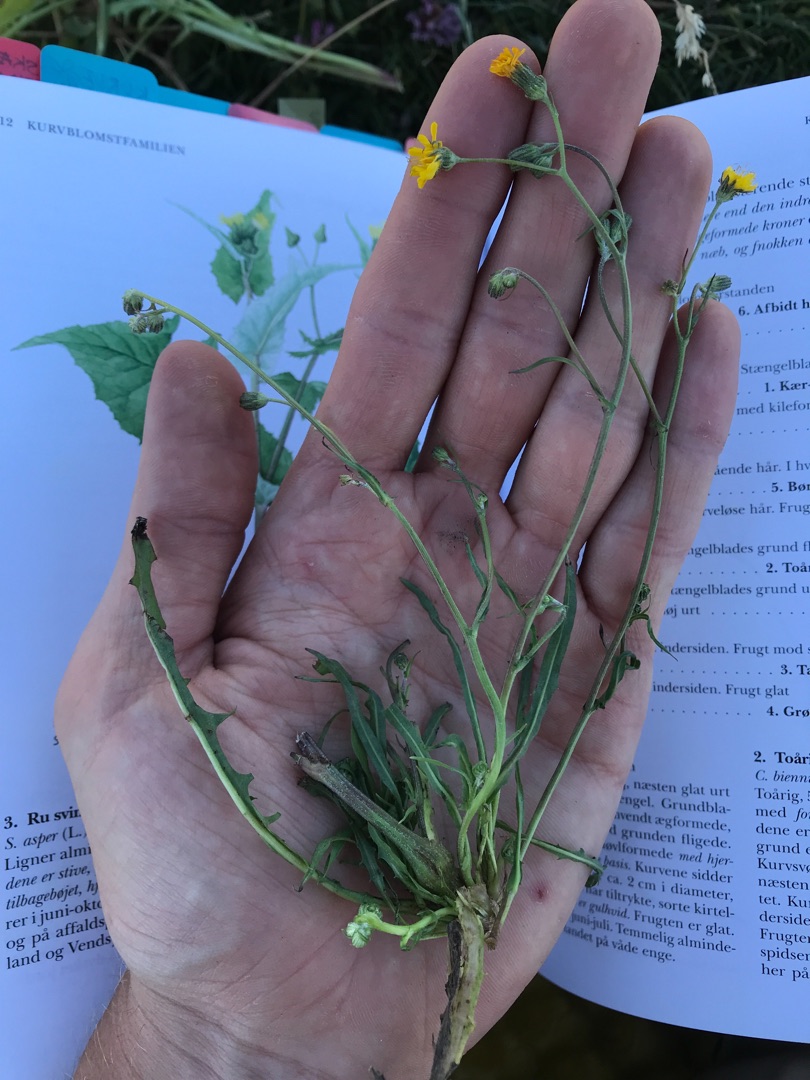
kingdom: Plantae
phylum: Tracheophyta
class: Magnoliopsida
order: Asterales
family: Asteraceae
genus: Crepis
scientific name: Crepis capillaris
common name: Grøn høgeskæg
